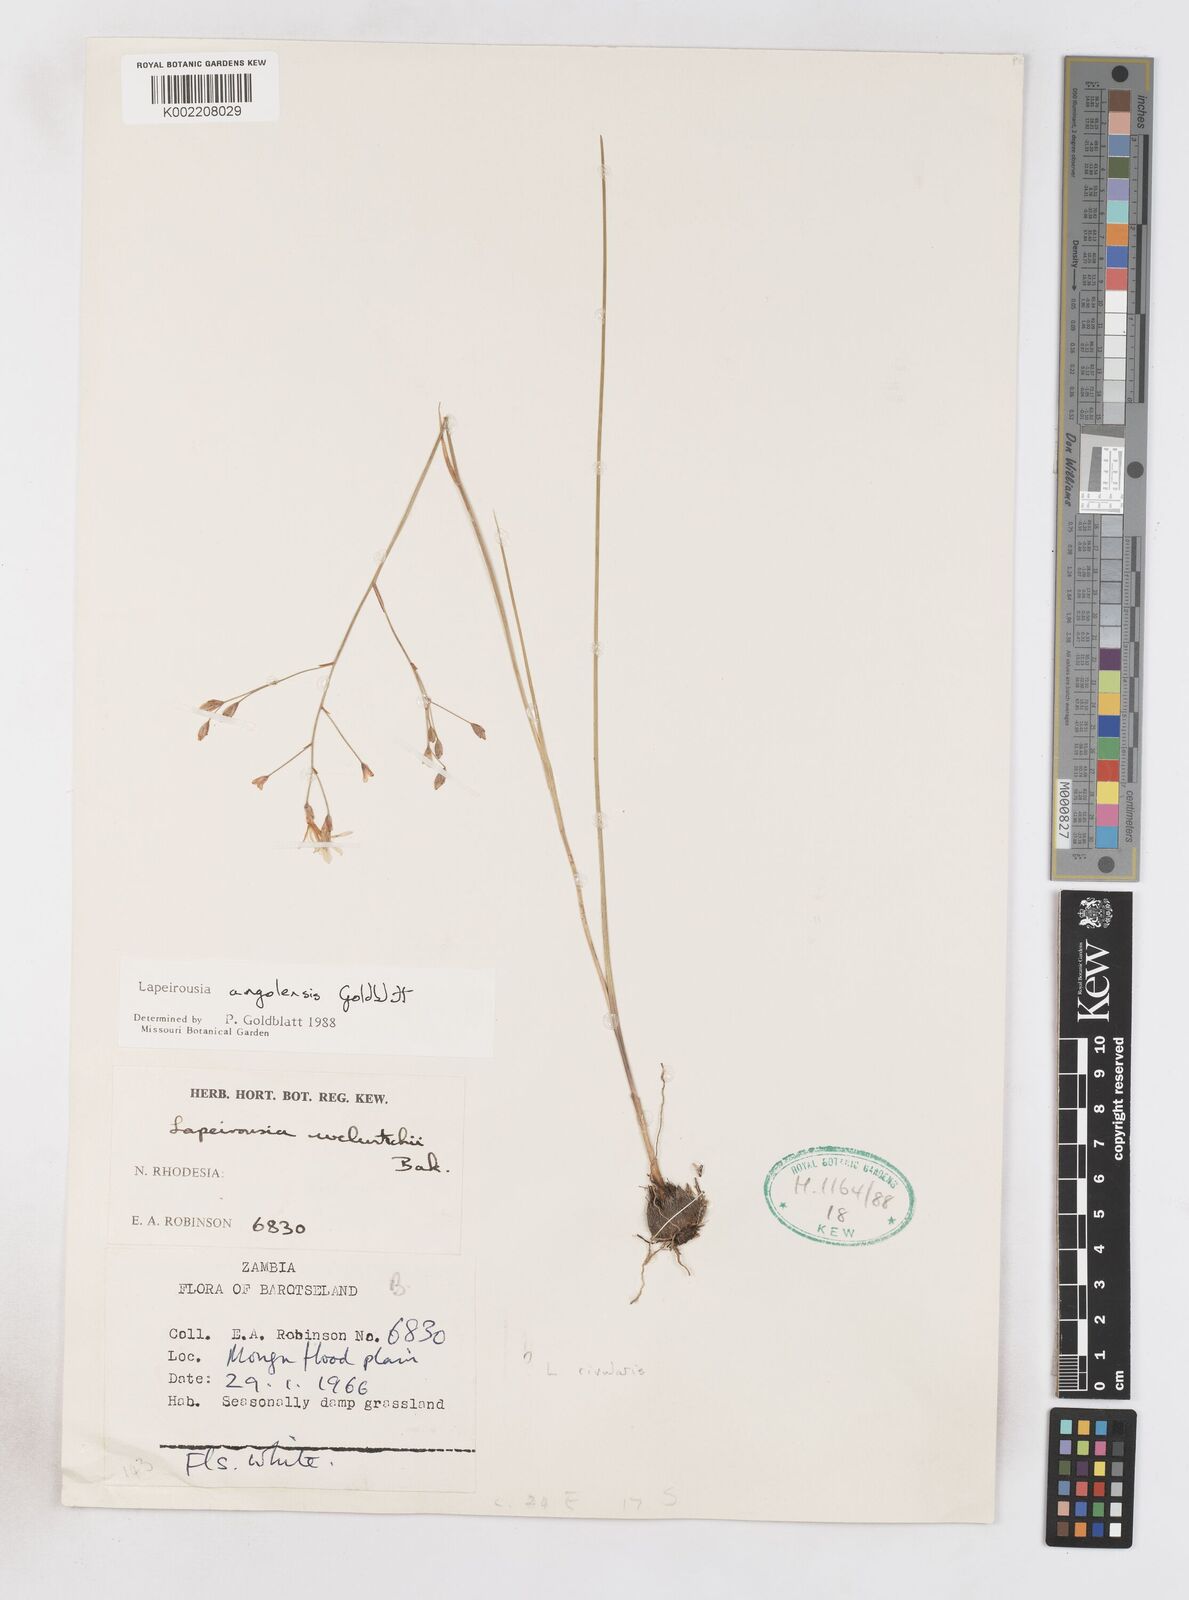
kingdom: Plantae
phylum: Tracheophyta
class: Liliopsida
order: Asparagales
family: Iridaceae
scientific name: Iridaceae
